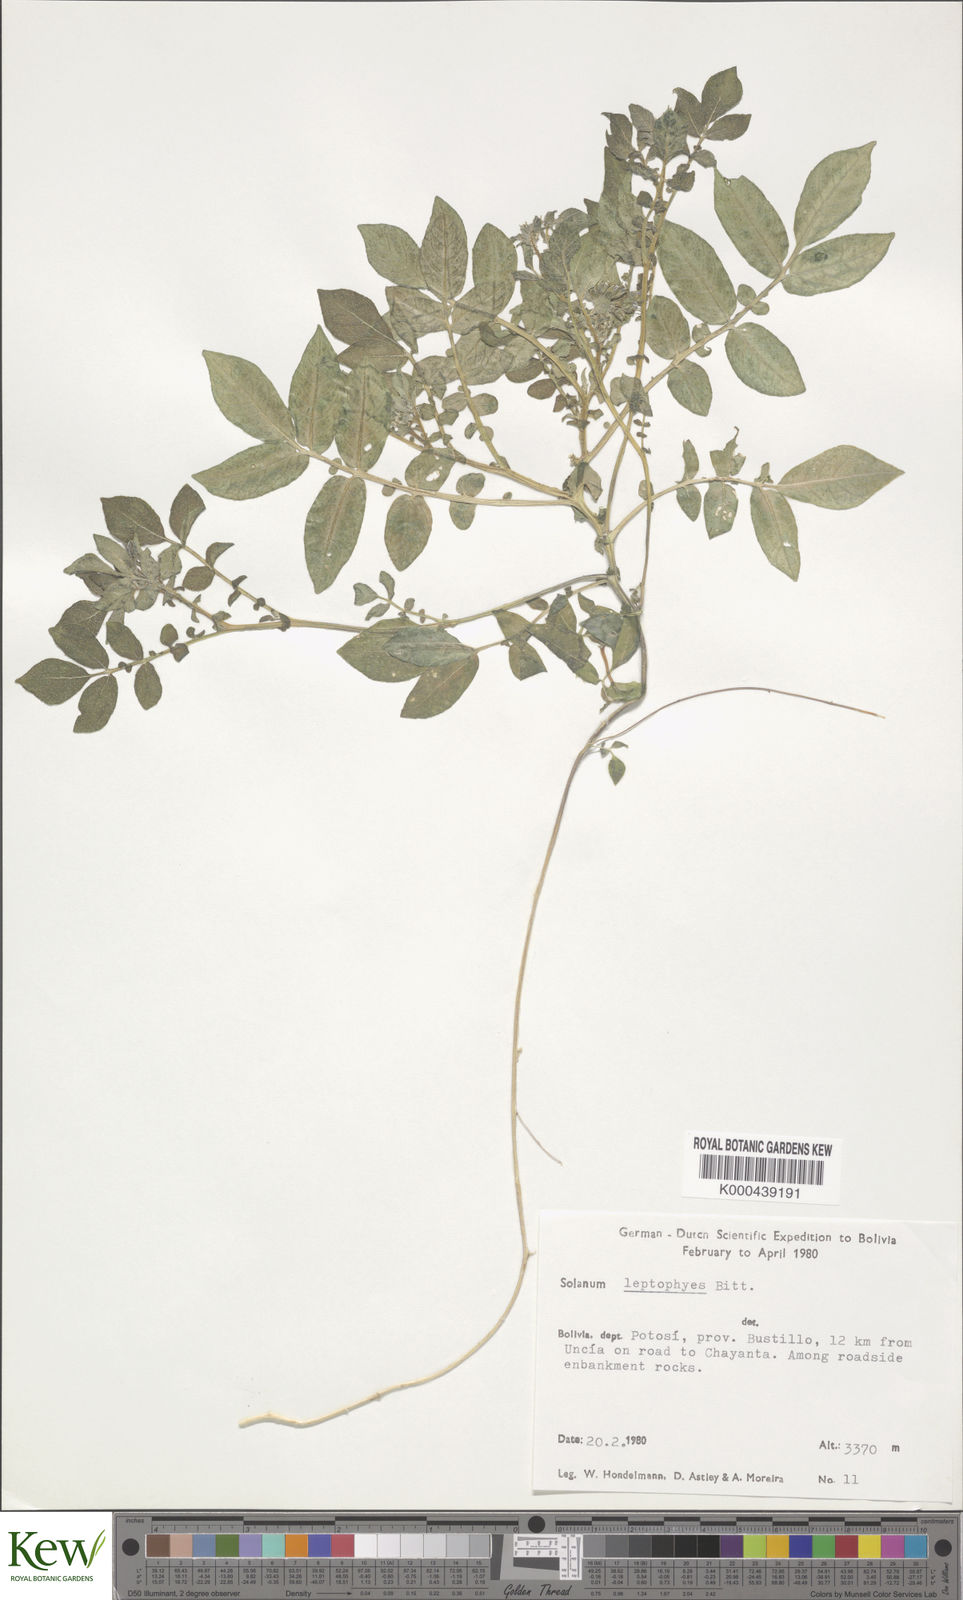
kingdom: Plantae
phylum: Tracheophyta
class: Magnoliopsida
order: Solanales
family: Solanaceae
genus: Solanum
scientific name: Solanum brevicaule
